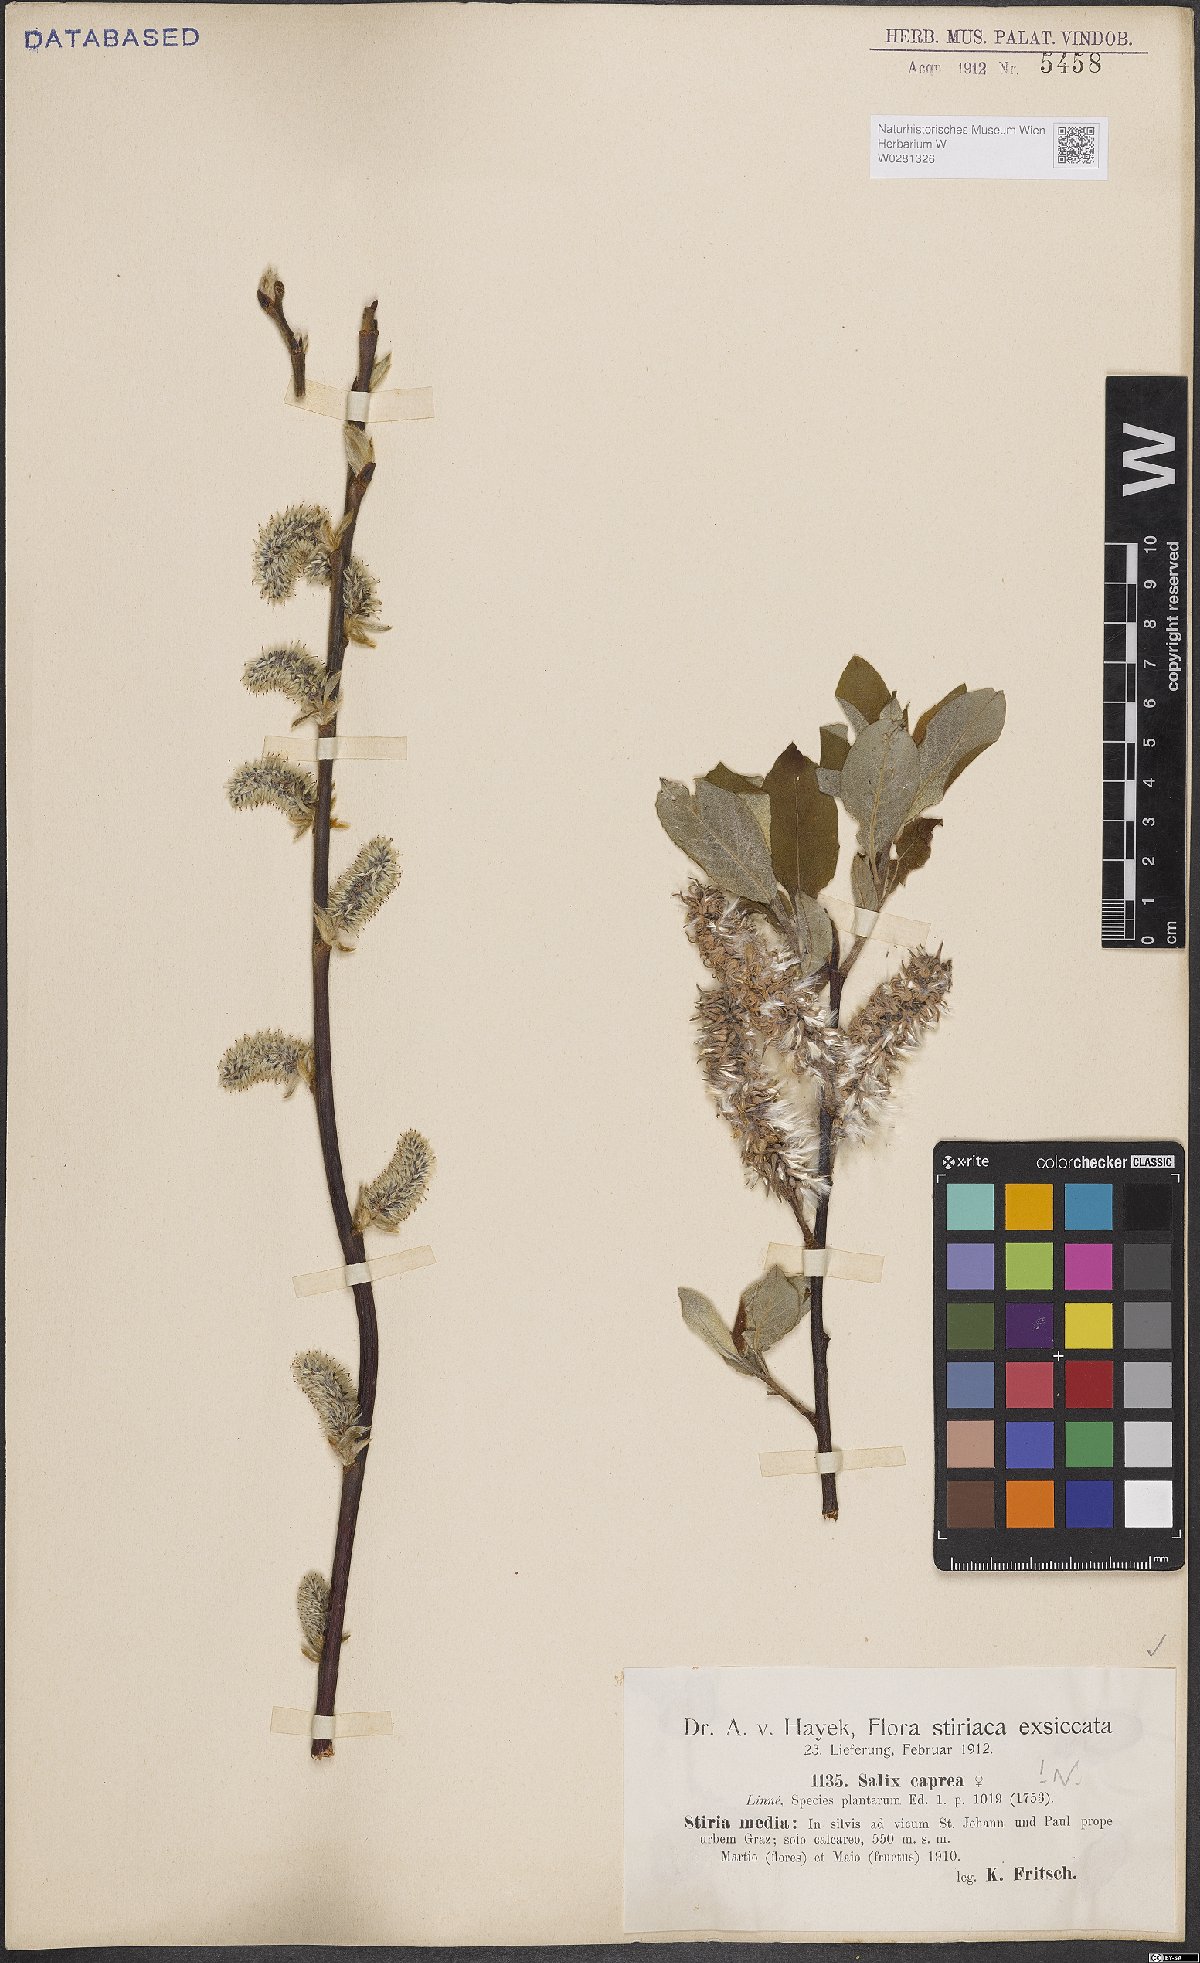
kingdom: Plantae
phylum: Tracheophyta
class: Magnoliopsida
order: Malpighiales
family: Salicaceae
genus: Salix
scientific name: Salix caprea
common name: Goat willow
